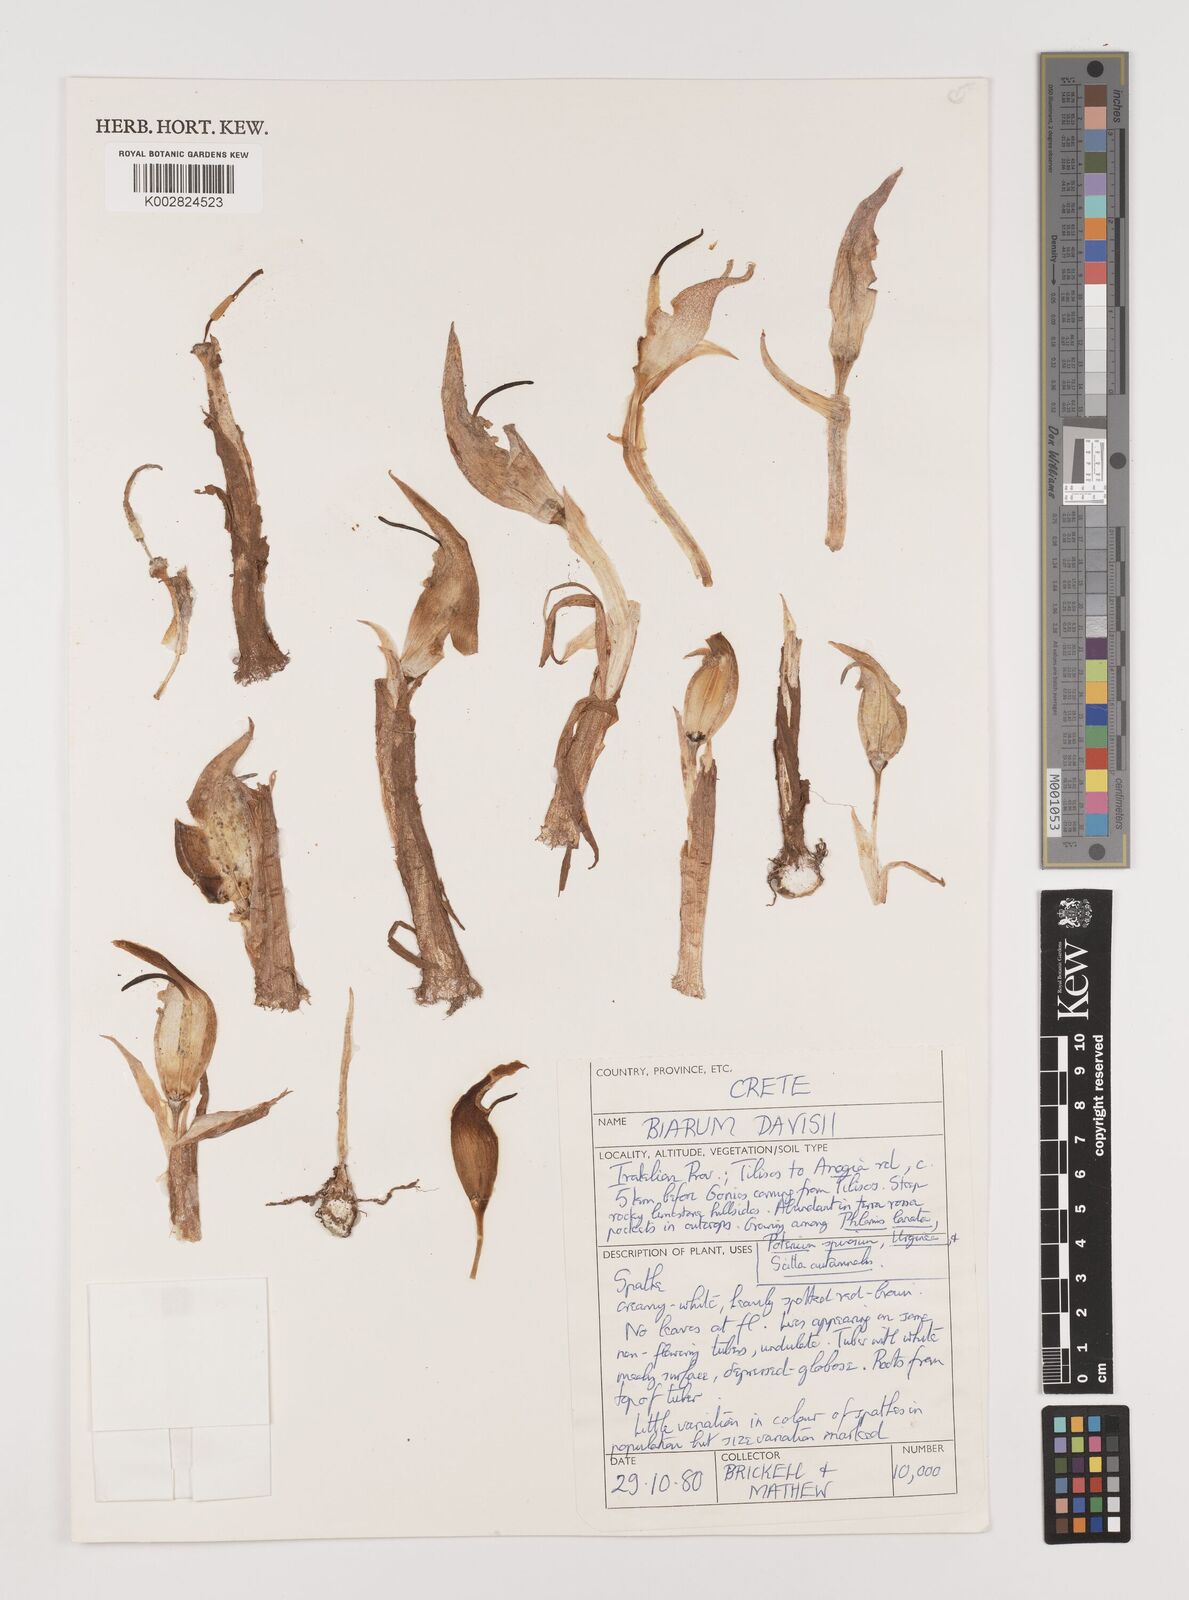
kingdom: Plantae
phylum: Tracheophyta
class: Liliopsida
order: Alismatales
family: Araceae
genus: Biarum
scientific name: Biarum davisii
